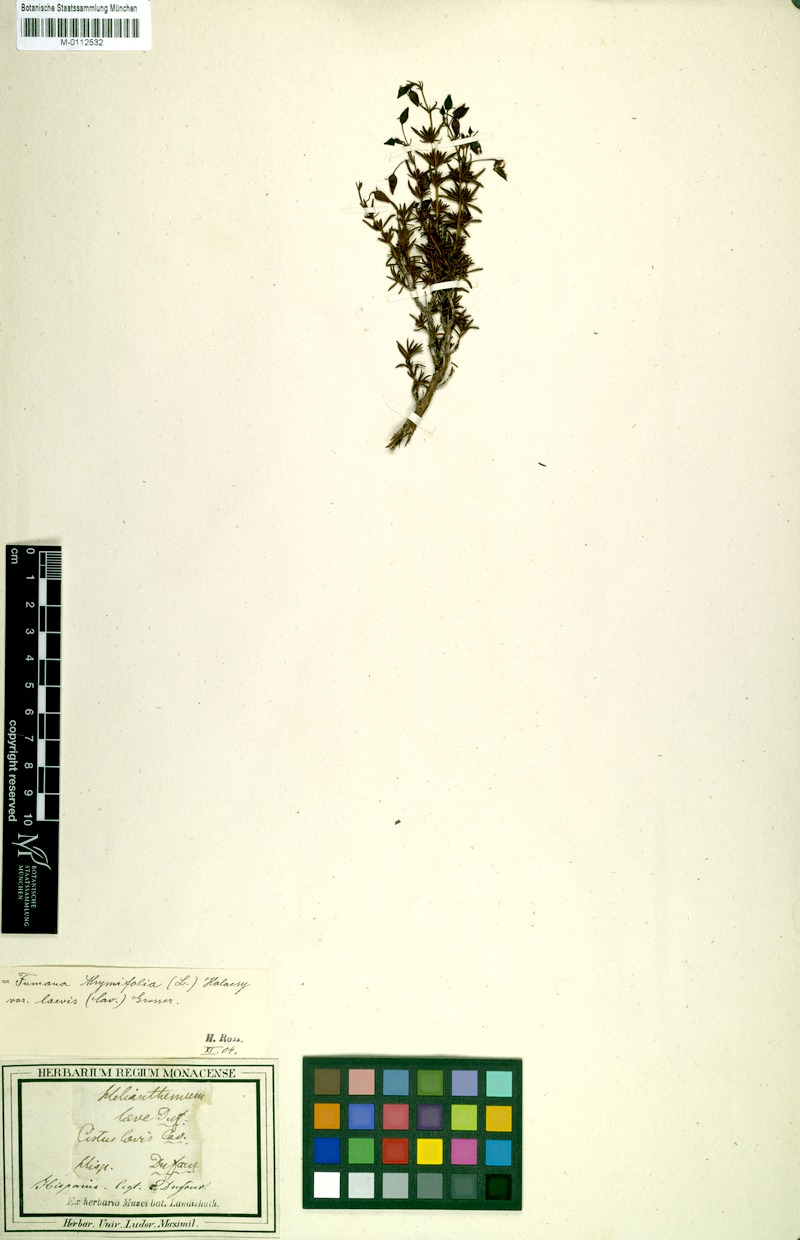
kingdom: Plantae
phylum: Tracheophyta
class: Magnoliopsida
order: Malvales
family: Cistaceae
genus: Helianthemum
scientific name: Helianthemum
